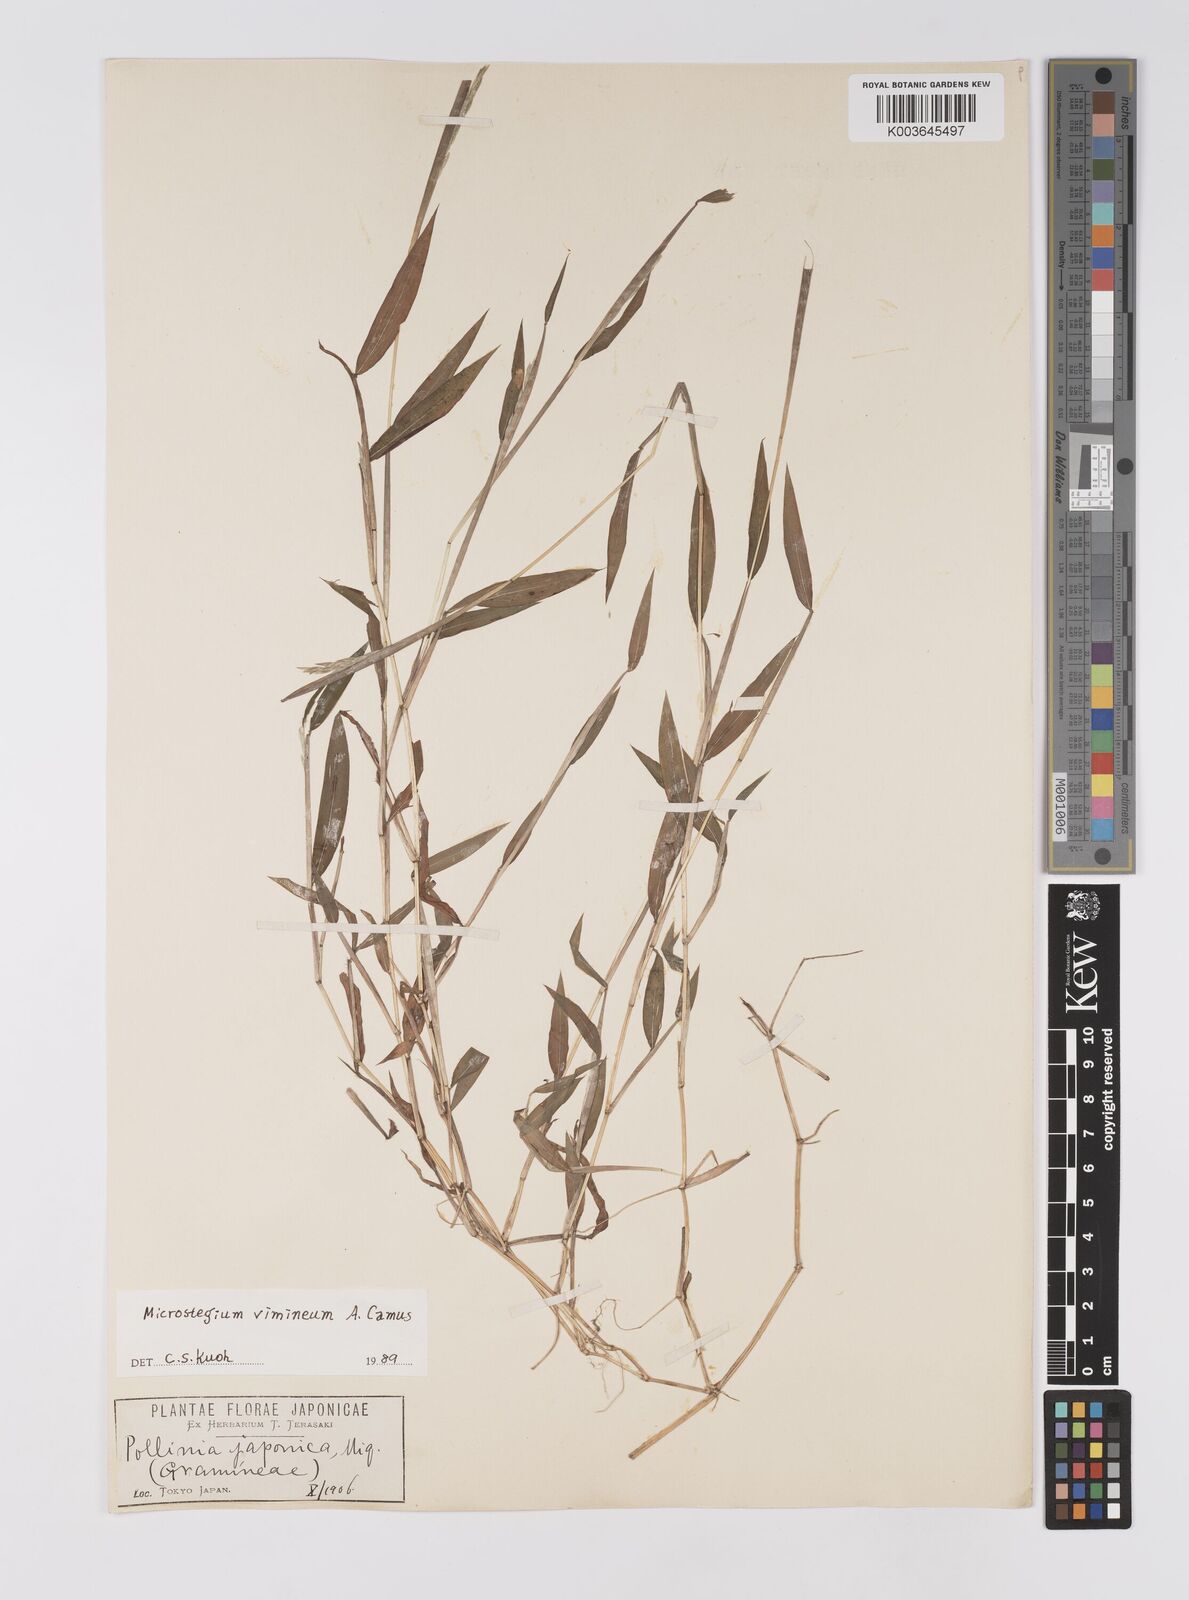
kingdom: Plantae
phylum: Tracheophyta
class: Liliopsida
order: Poales
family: Poaceae
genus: Microstegium
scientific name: Microstegium vimineum
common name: Japanese stiltgrass
